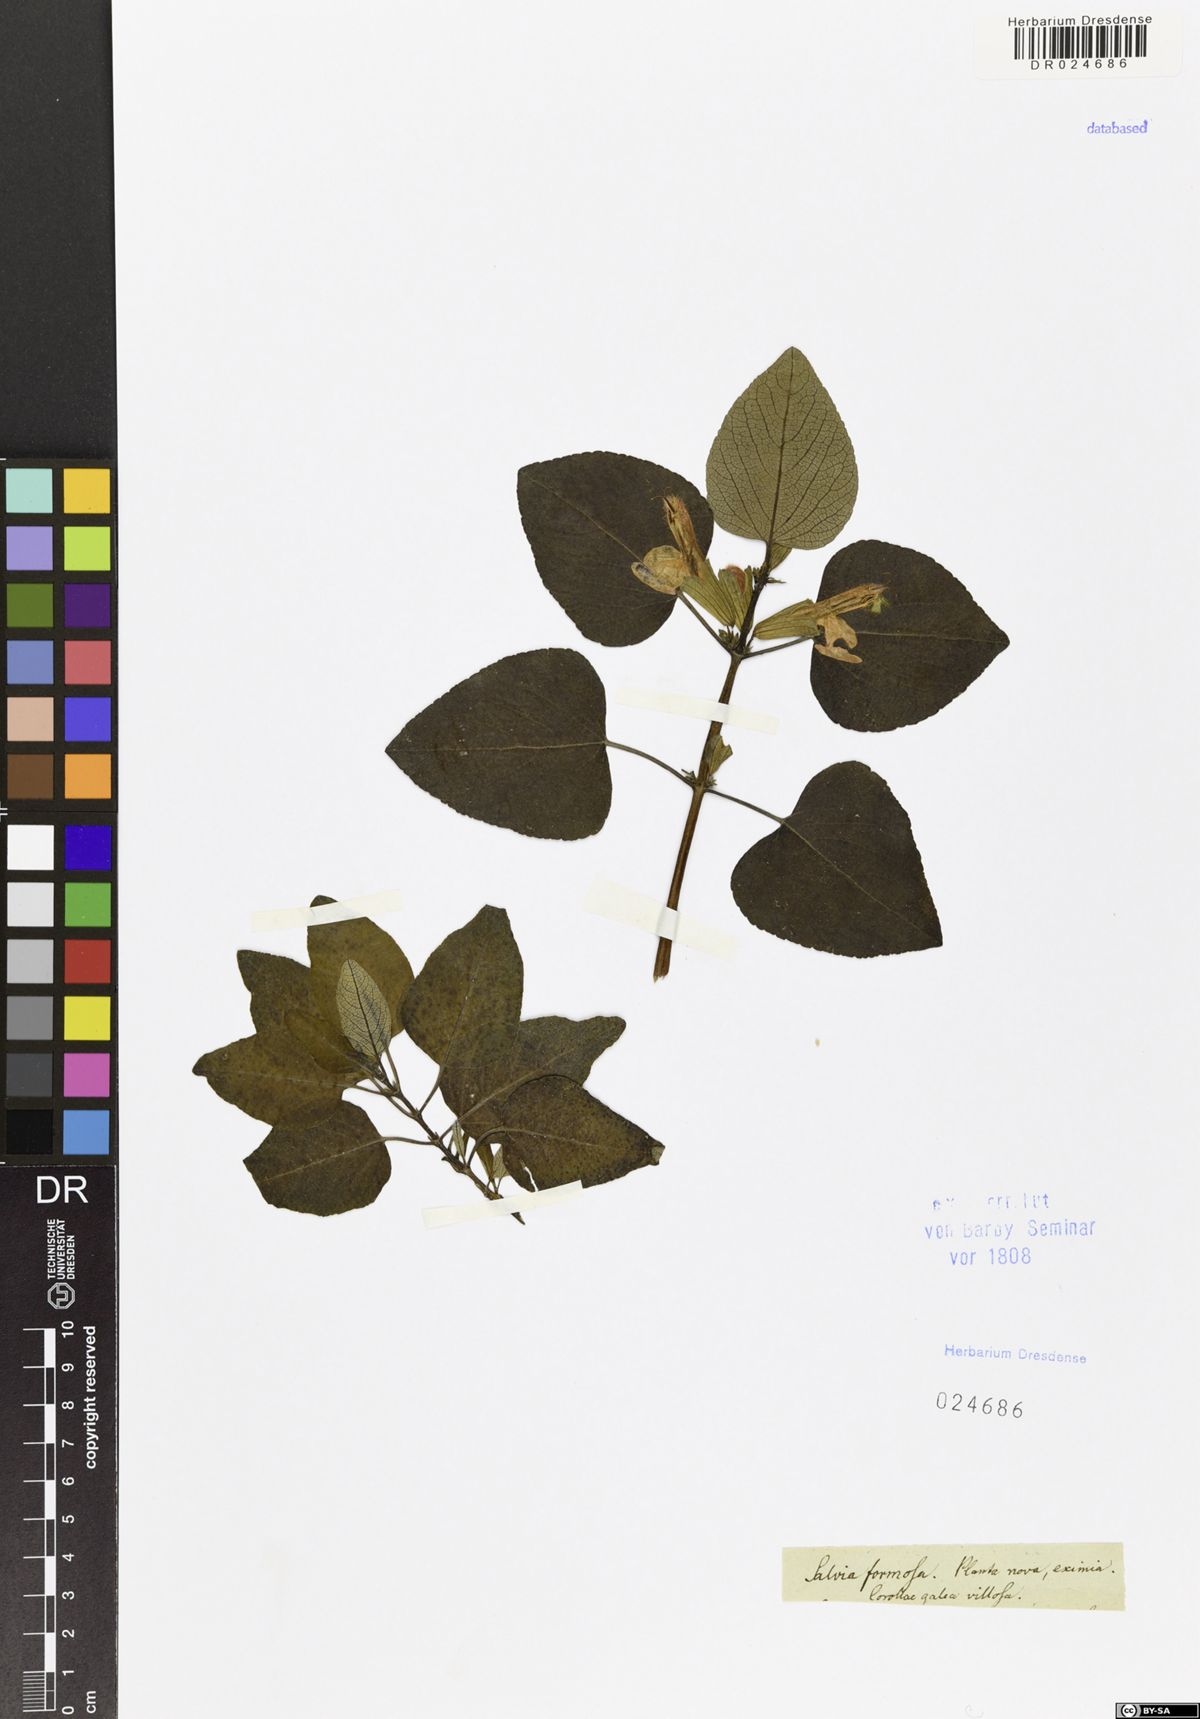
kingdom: Plantae
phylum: Tracheophyta
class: Magnoliopsida
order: Lamiales
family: Lamiaceae
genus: Salvia
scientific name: Salvia leonuroides
